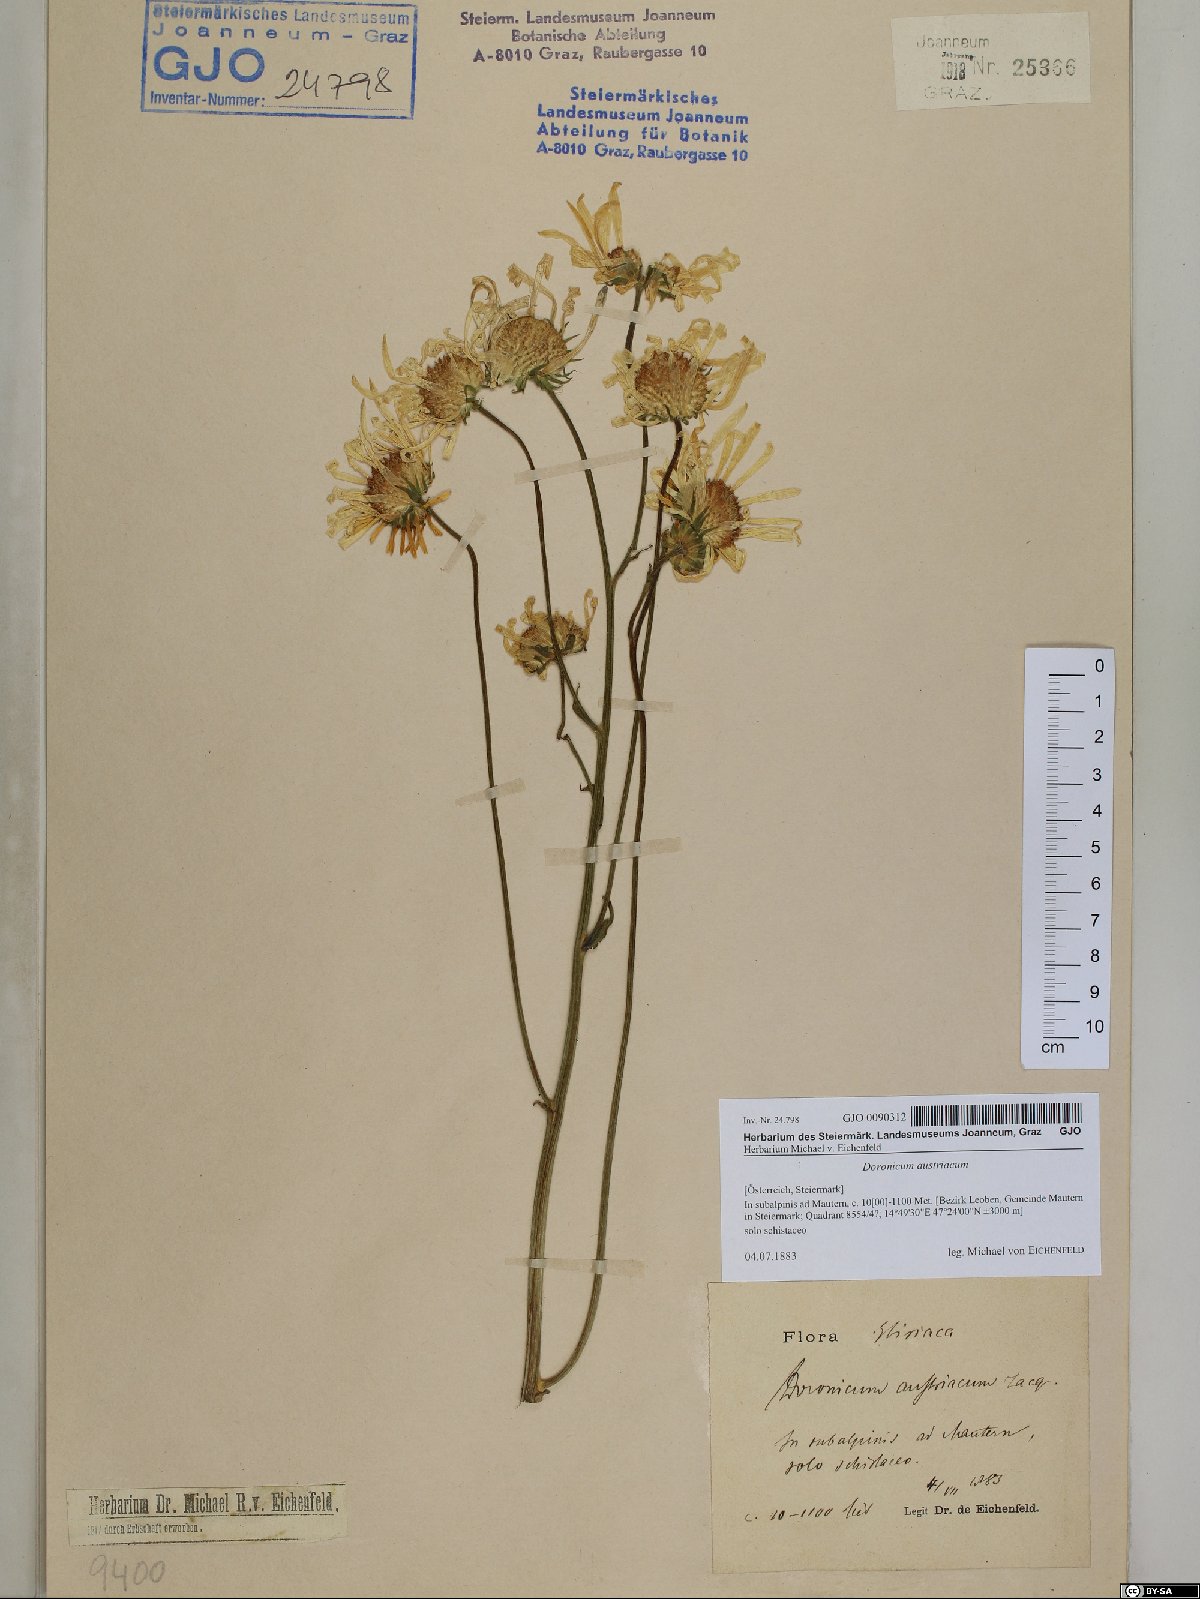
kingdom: Plantae
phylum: Tracheophyta
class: Magnoliopsida
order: Asterales
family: Asteraceae
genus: Doronicum
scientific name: Doronicum austriacum
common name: Austrian leopard's-bane
